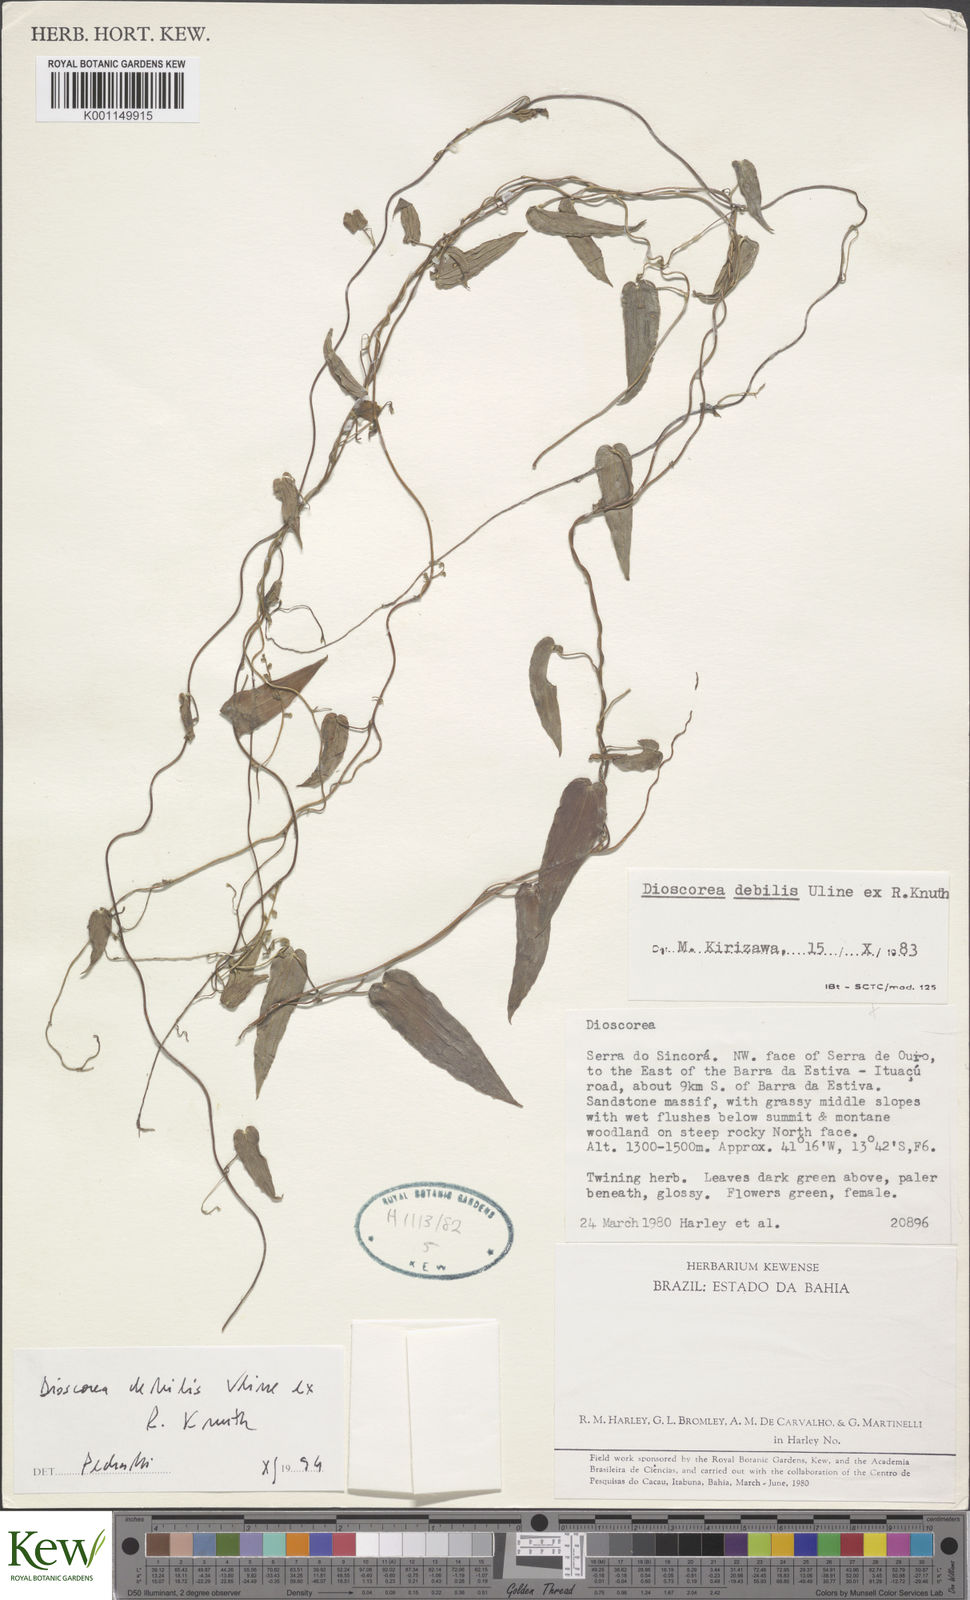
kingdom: Plantae
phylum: Tracheophyta
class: Liliopsida
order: Dioscoreales
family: Dioscoreaceae
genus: Dioscorea
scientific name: Dioscorea debilis
